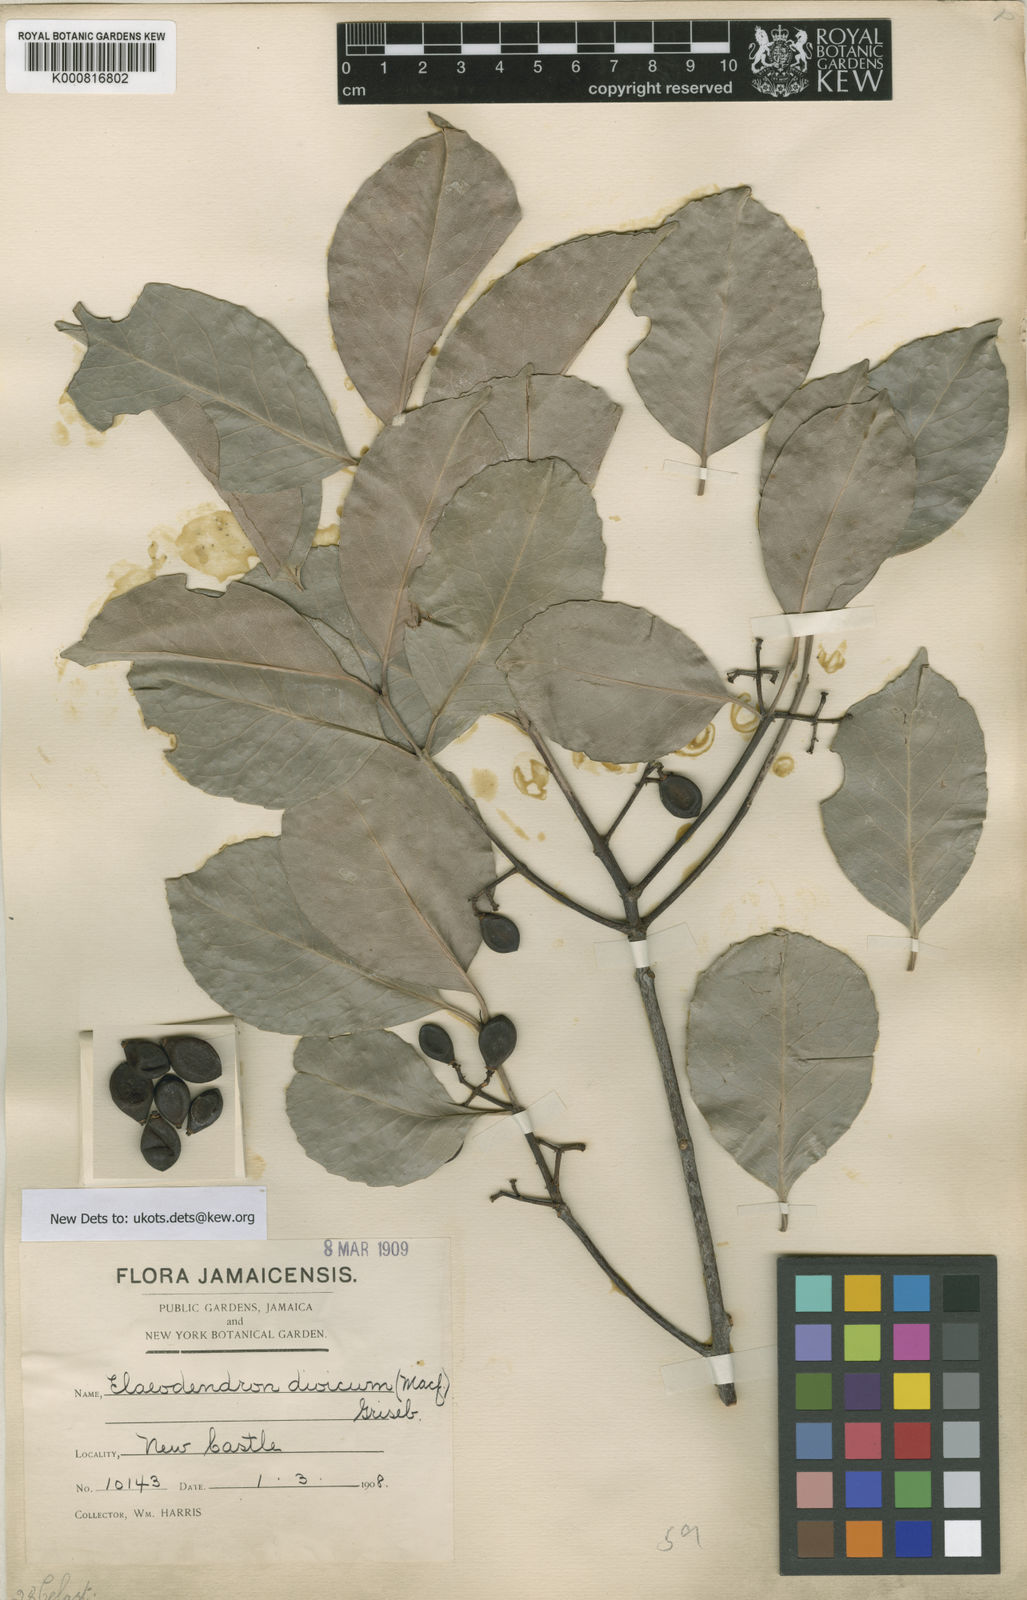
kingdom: Plantae
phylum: Tracheophyta
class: Magnoliopsida
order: Celastrales
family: Celastraceae
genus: Elaeodendron
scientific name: Elaeodendron
